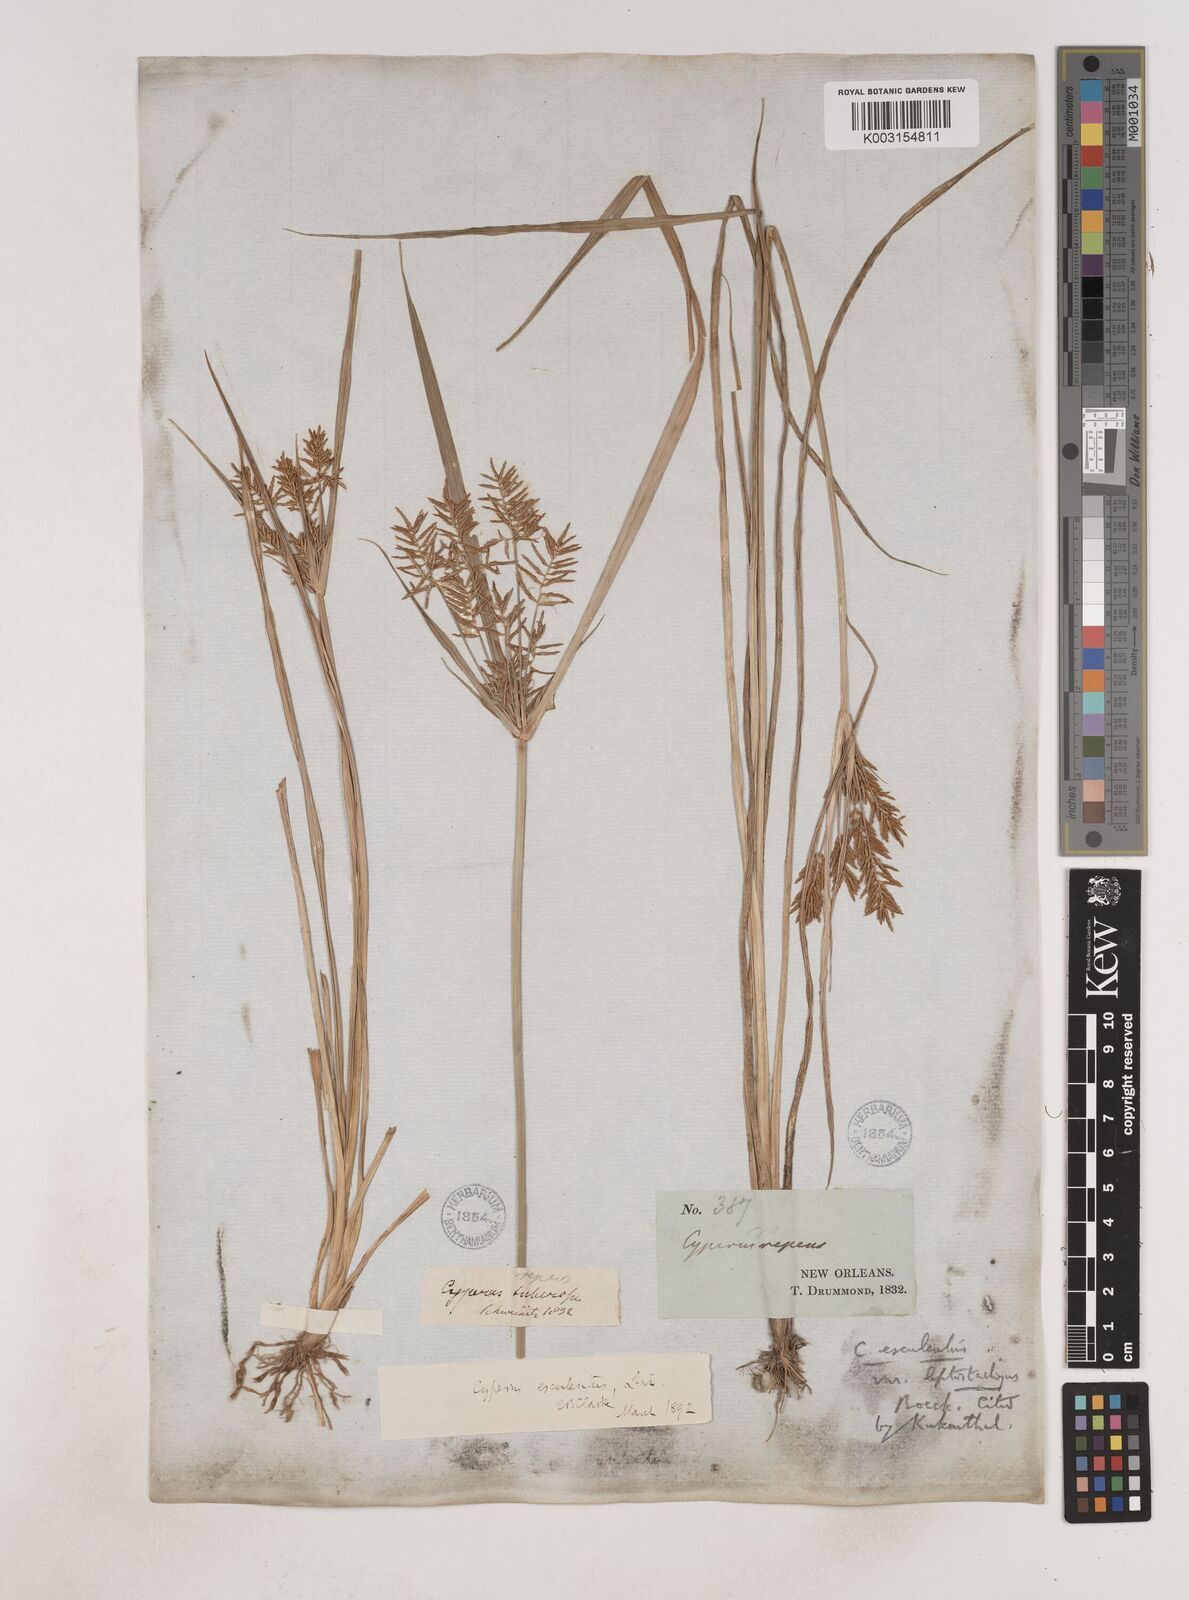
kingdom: Plantae
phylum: Tracheophyta
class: Liliopsida
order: Poales
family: Cyperaceae
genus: Cyperus
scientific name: Cyperus esculentus
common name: Yellow nutsedge
